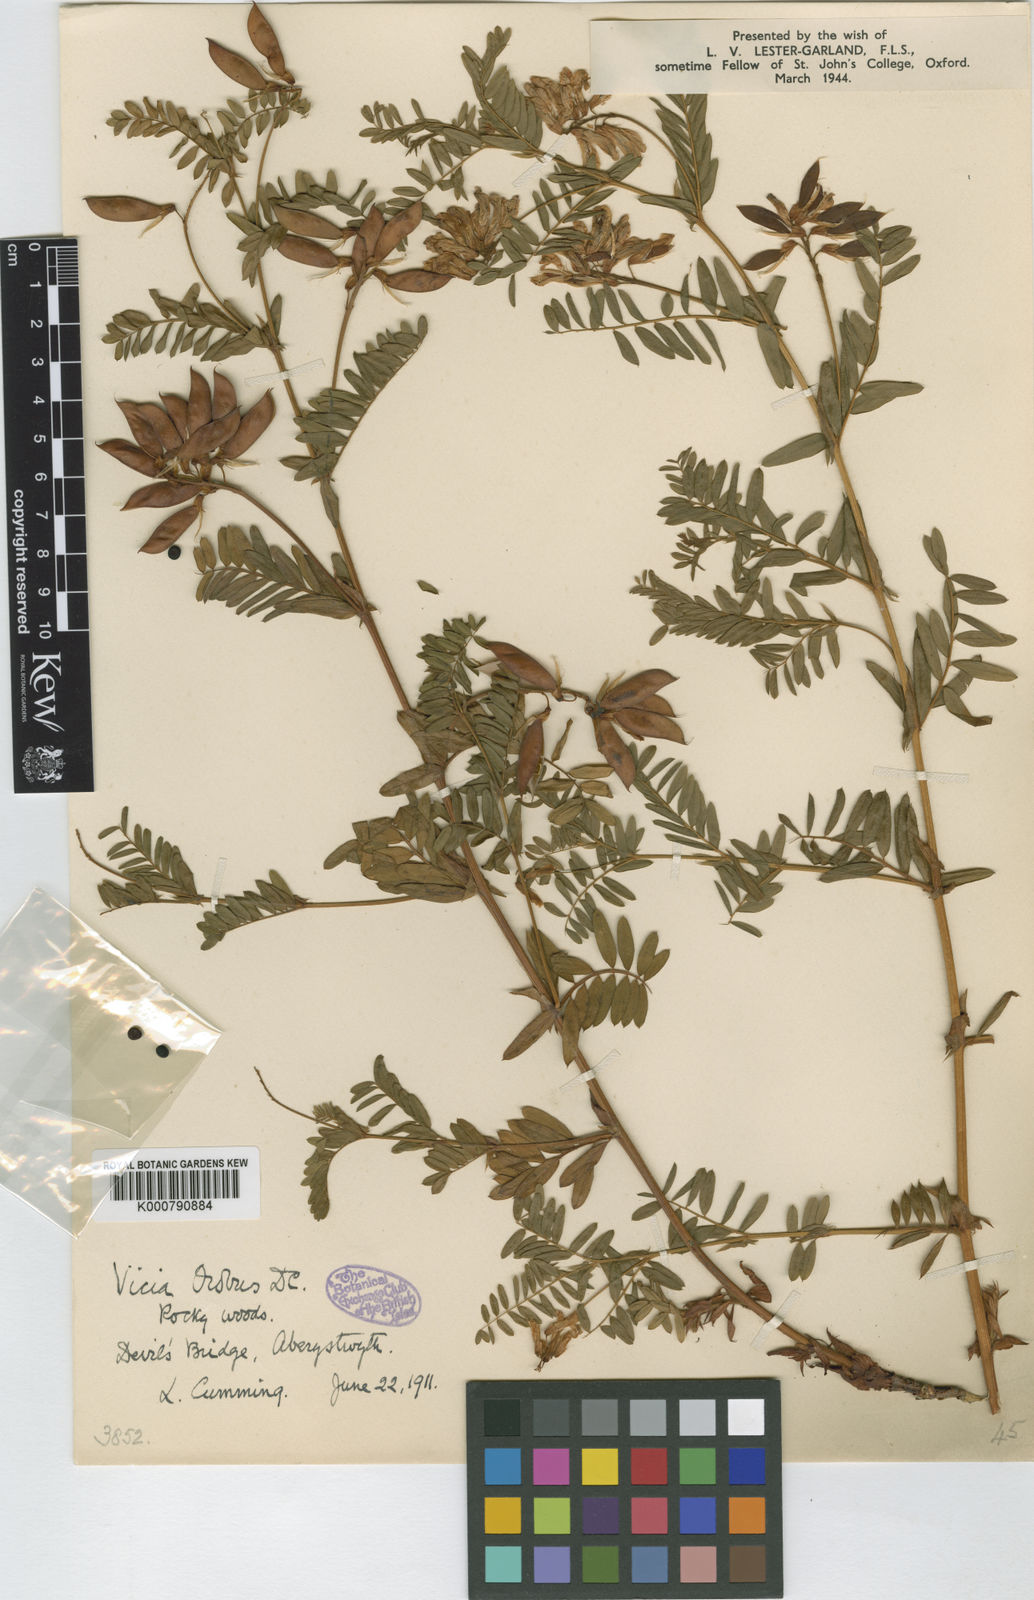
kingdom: Plantae
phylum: Tracheophyta
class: Magnoliopsida
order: Fabales
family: Fabaceae
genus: Vicia
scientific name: Vicia orobus
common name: Wood bitter-vetch
